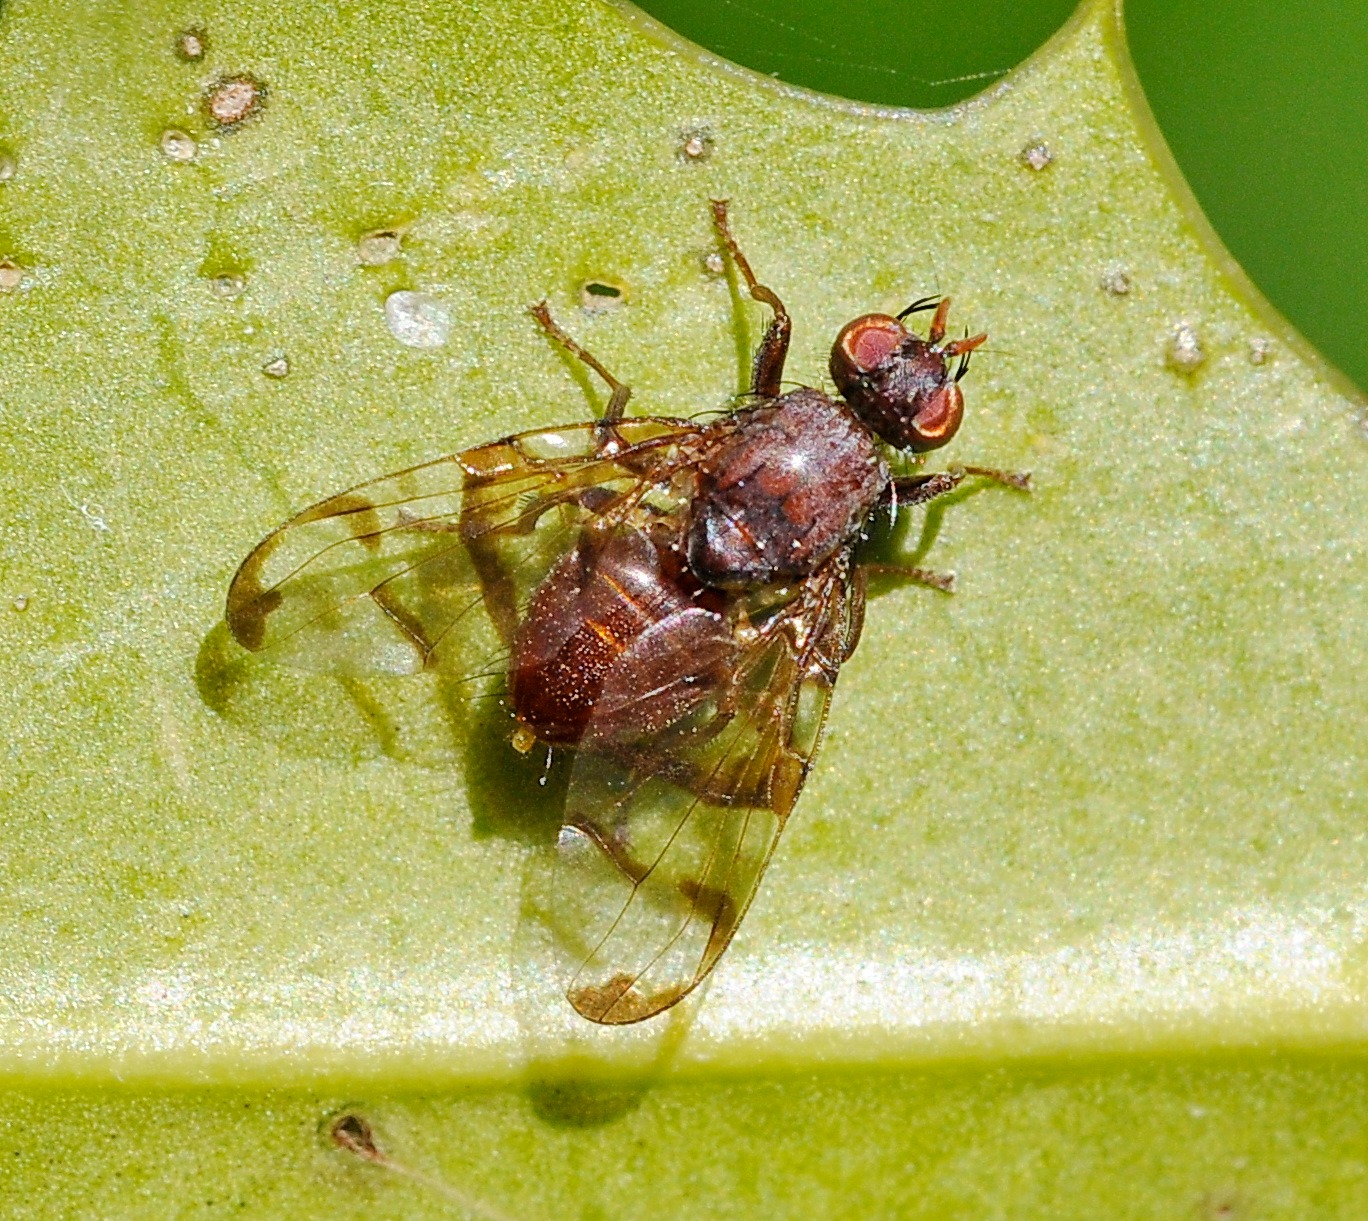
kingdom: Animalia
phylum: Arthropoda
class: Insecta
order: Diptera
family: Tephritidae
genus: Chetostoma
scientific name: Chetostoma curvinerve
